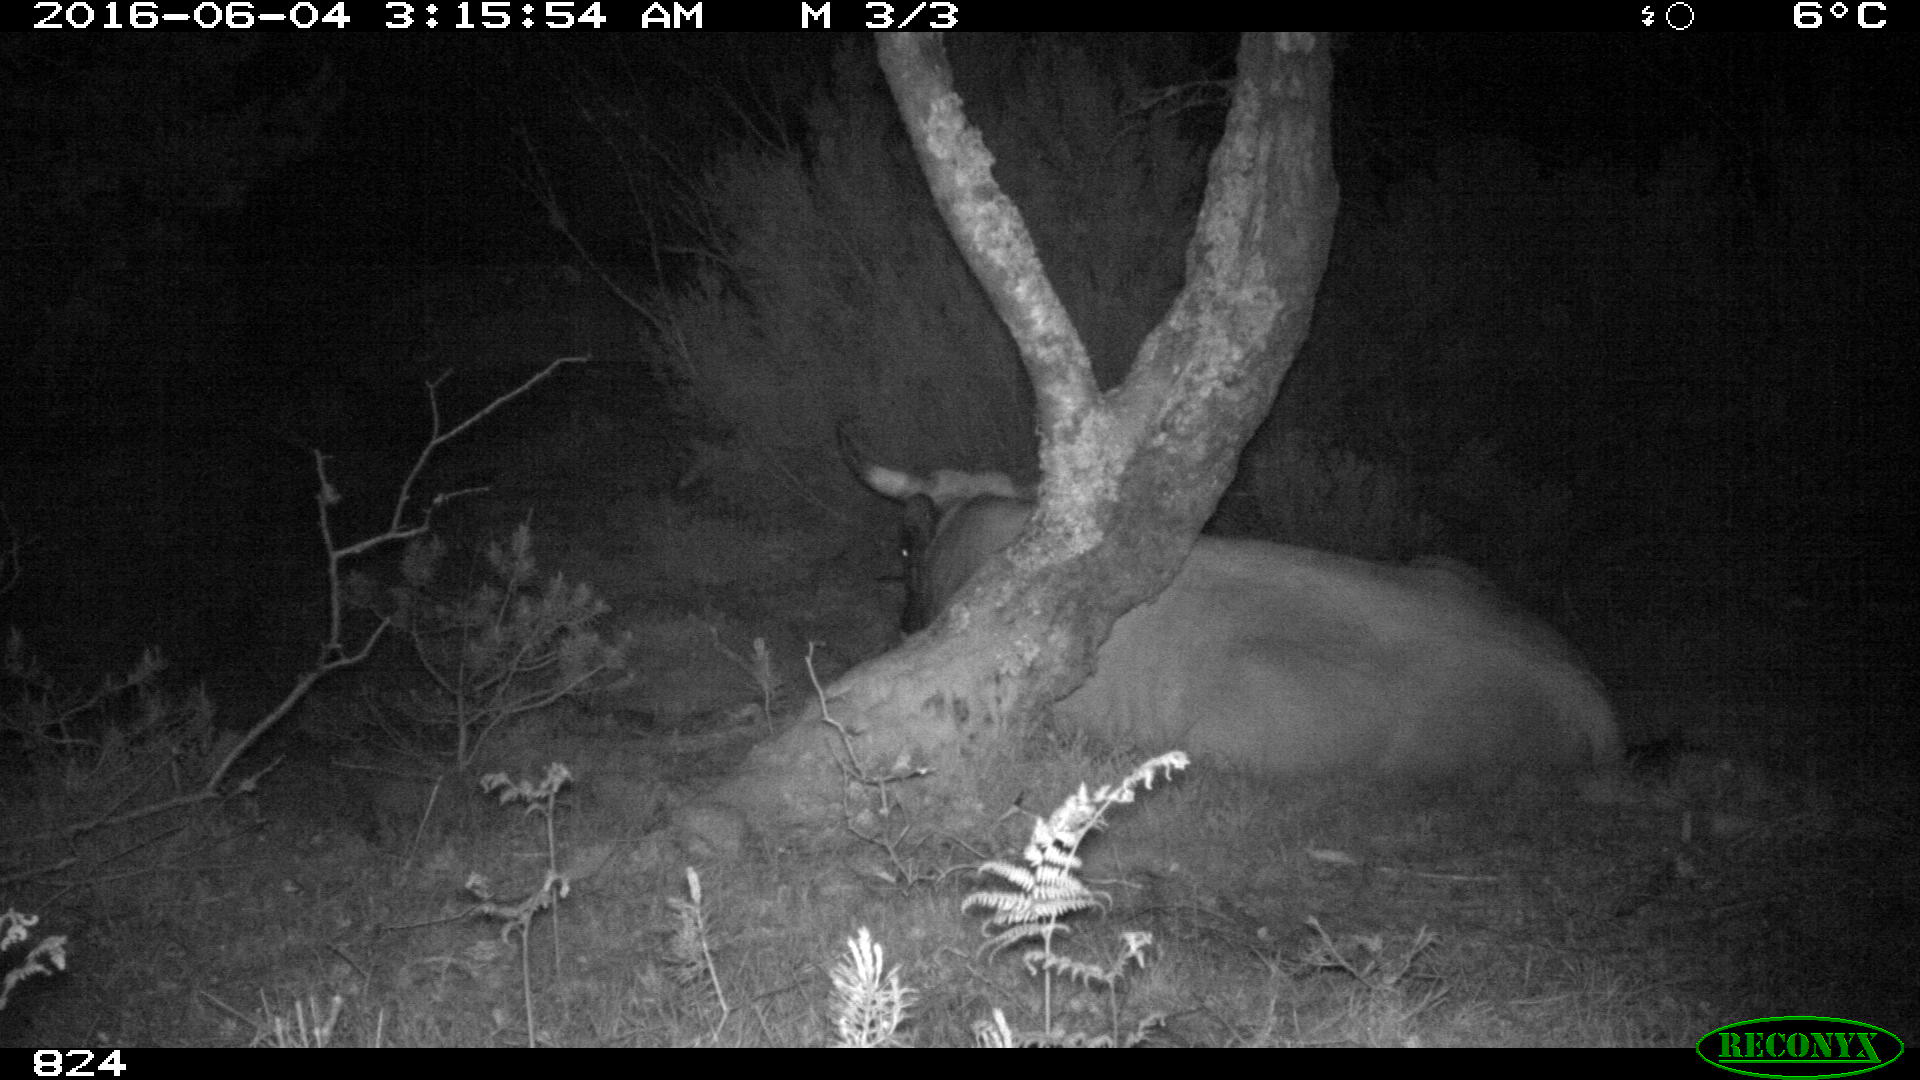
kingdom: Animalia
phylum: Chordata
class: Mammalia
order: Artiodactyla
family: Bovidae
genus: Bos
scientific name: Bos taurus
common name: Domesticated cattle
